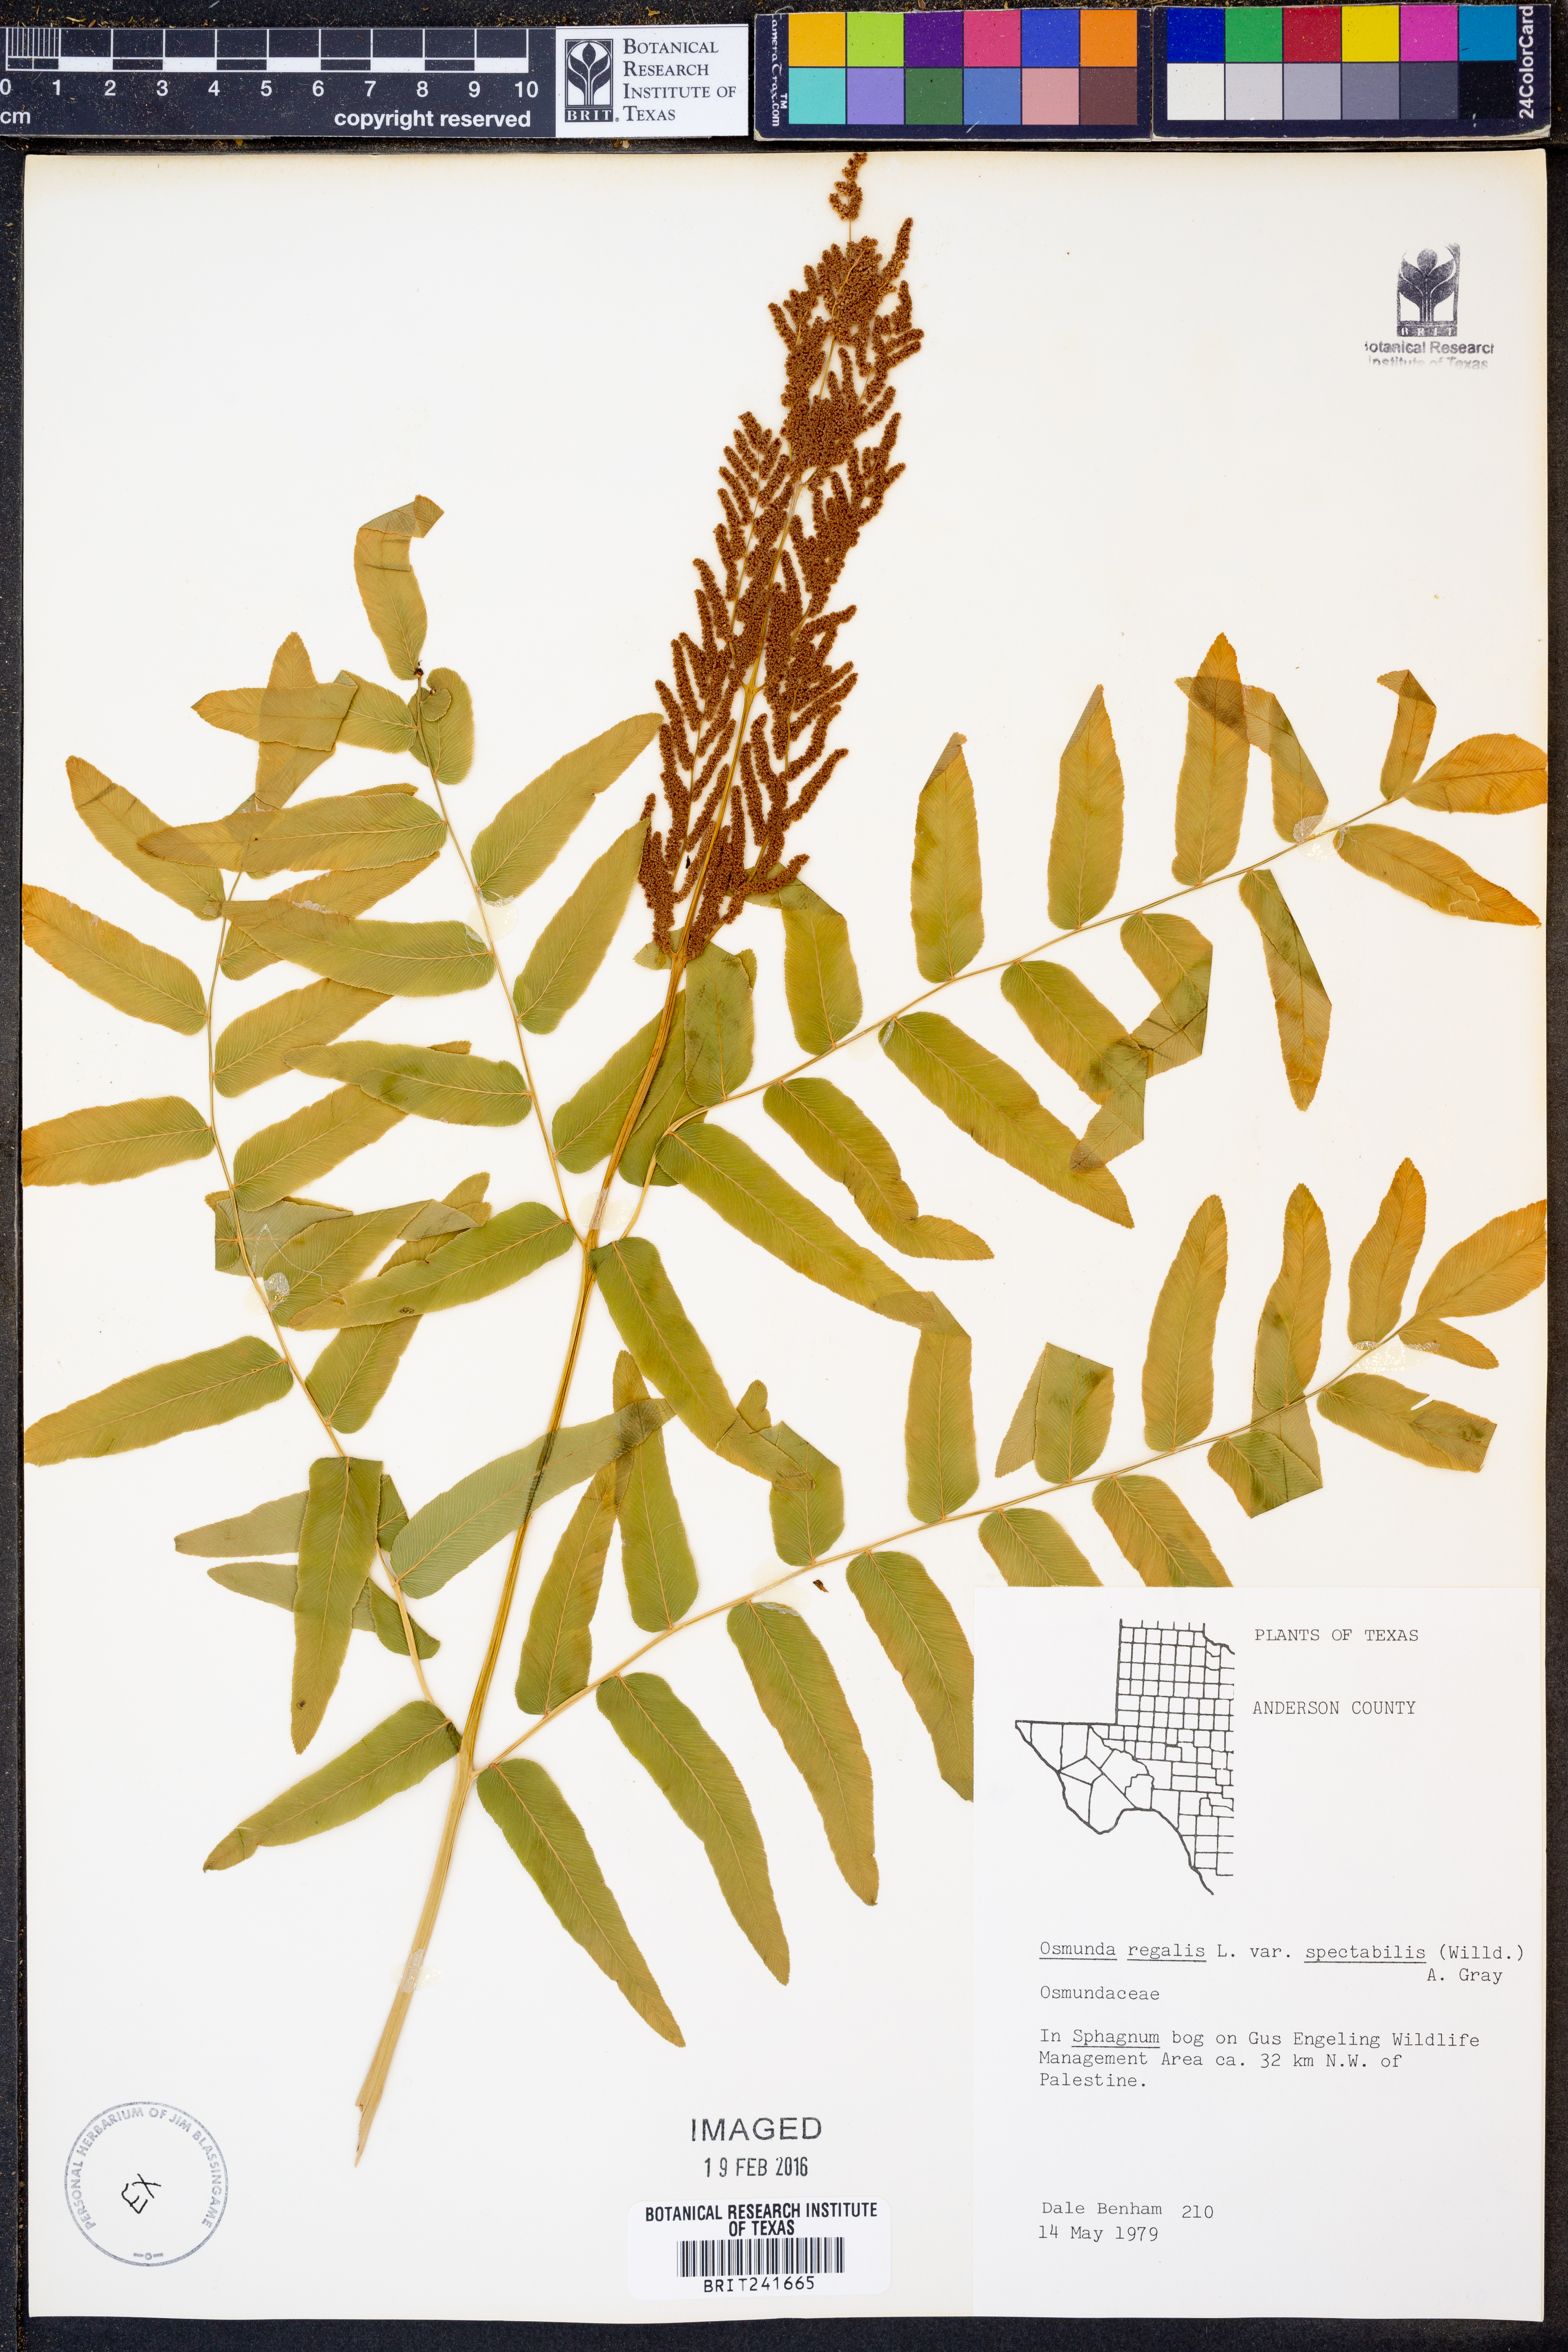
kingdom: Plantae
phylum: Tracheophyta
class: Polypodiopsida
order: Osmundales
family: Osmundaceae
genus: Osmunda
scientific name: Osmunda spectabilis
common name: American royal fern
